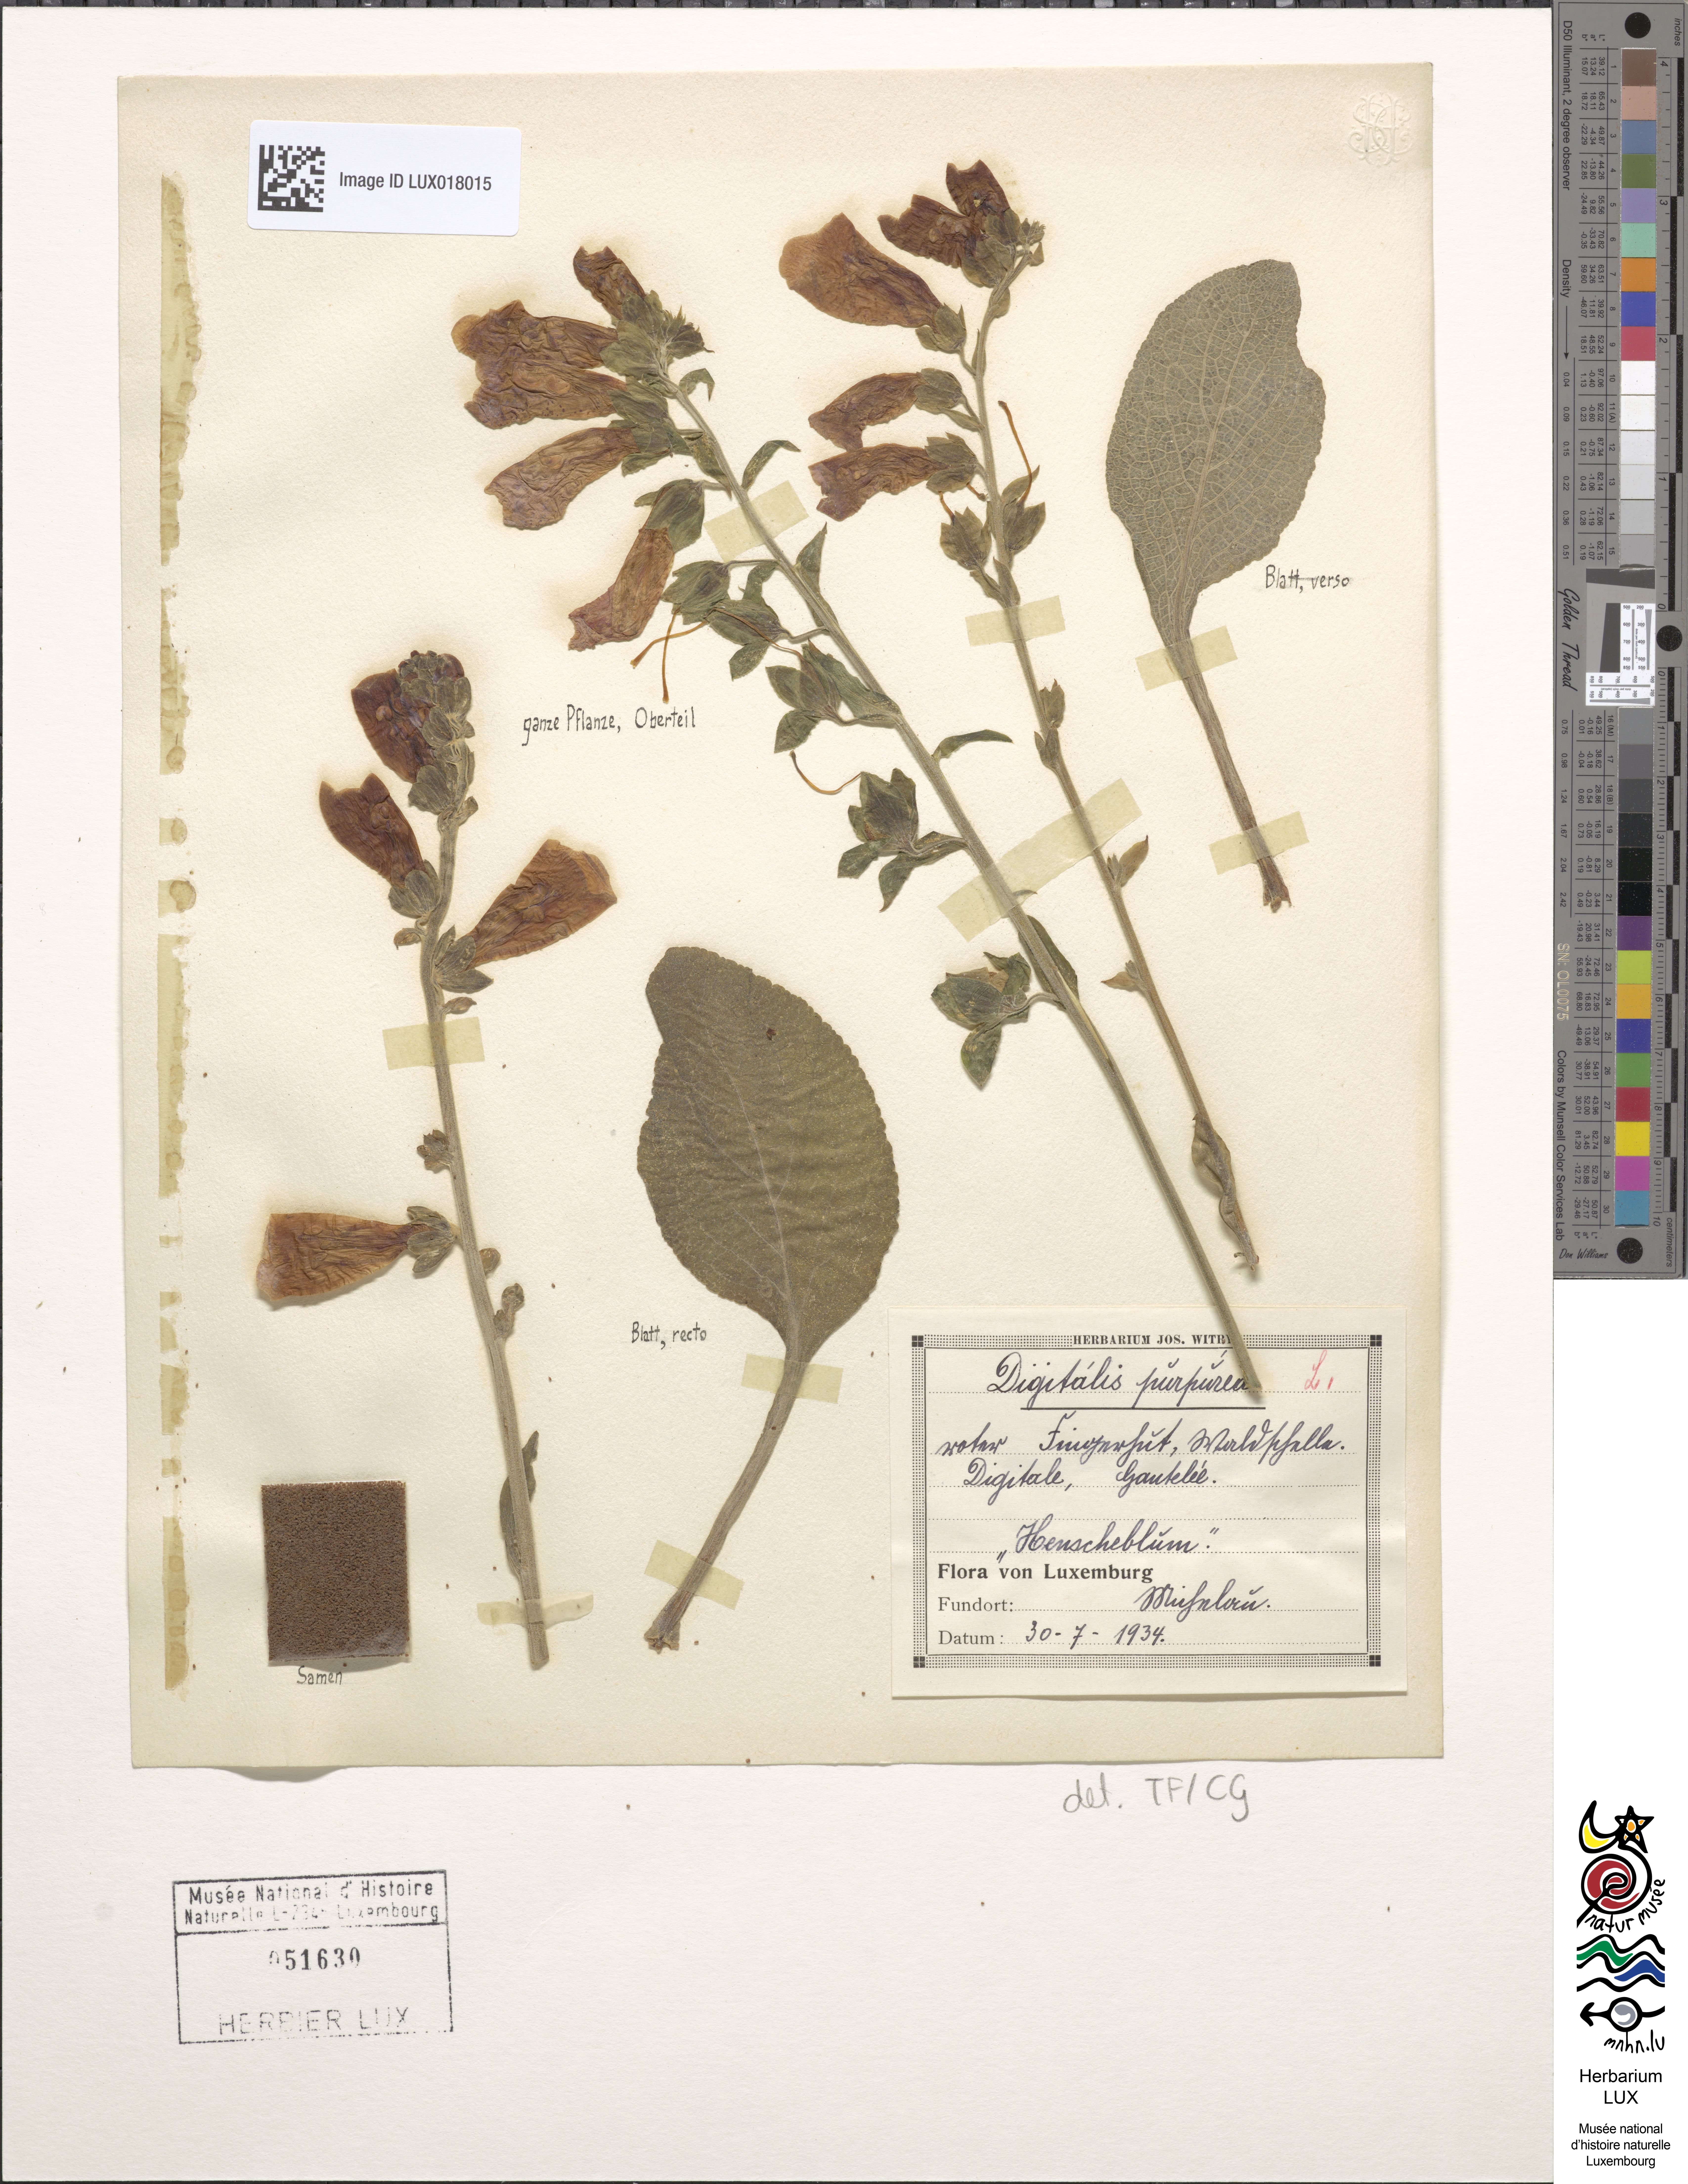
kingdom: Plantae
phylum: Tracheophyta
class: Magnoliopsida
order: Lamiales
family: Plantaginaceae
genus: Digitalis
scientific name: Digitalis purpurea
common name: Foxglove
